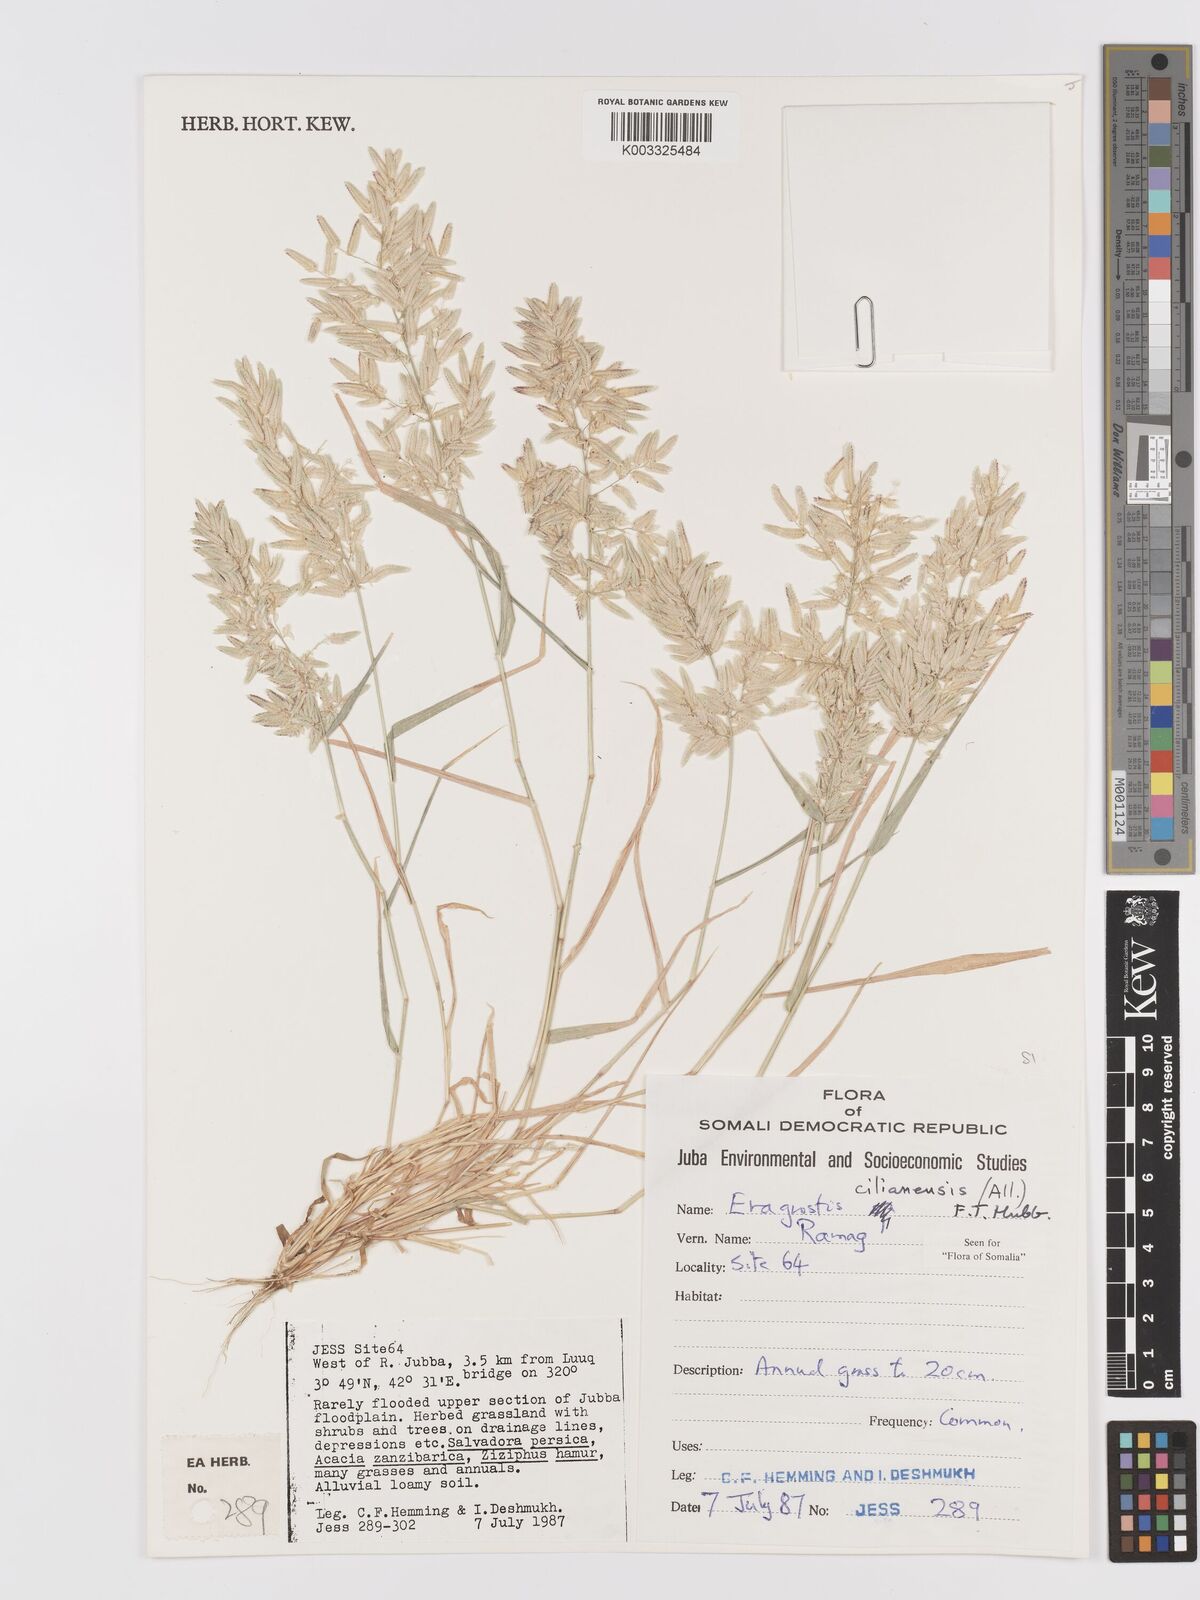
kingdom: Plantae
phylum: Tracheophyta
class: Liliopsida
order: Poales
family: Poaceae
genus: Eragrostis
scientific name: Eragrostis cilianensis
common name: Stinkgrass
